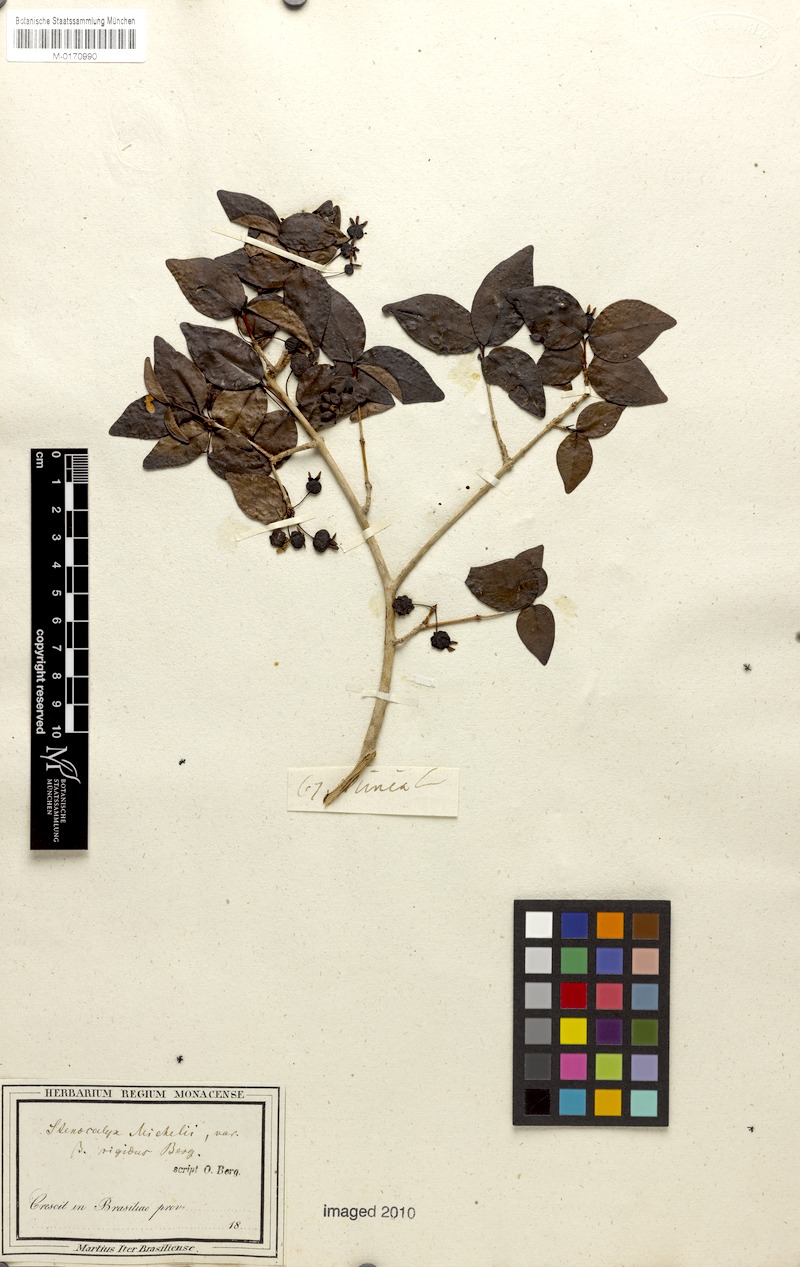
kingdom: Plantae
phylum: Tracheophyta
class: Magnoliopsida
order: Myrtales
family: Myrtaceae
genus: Eugenia
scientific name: Eugenia uniflora
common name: Surinam cherry
